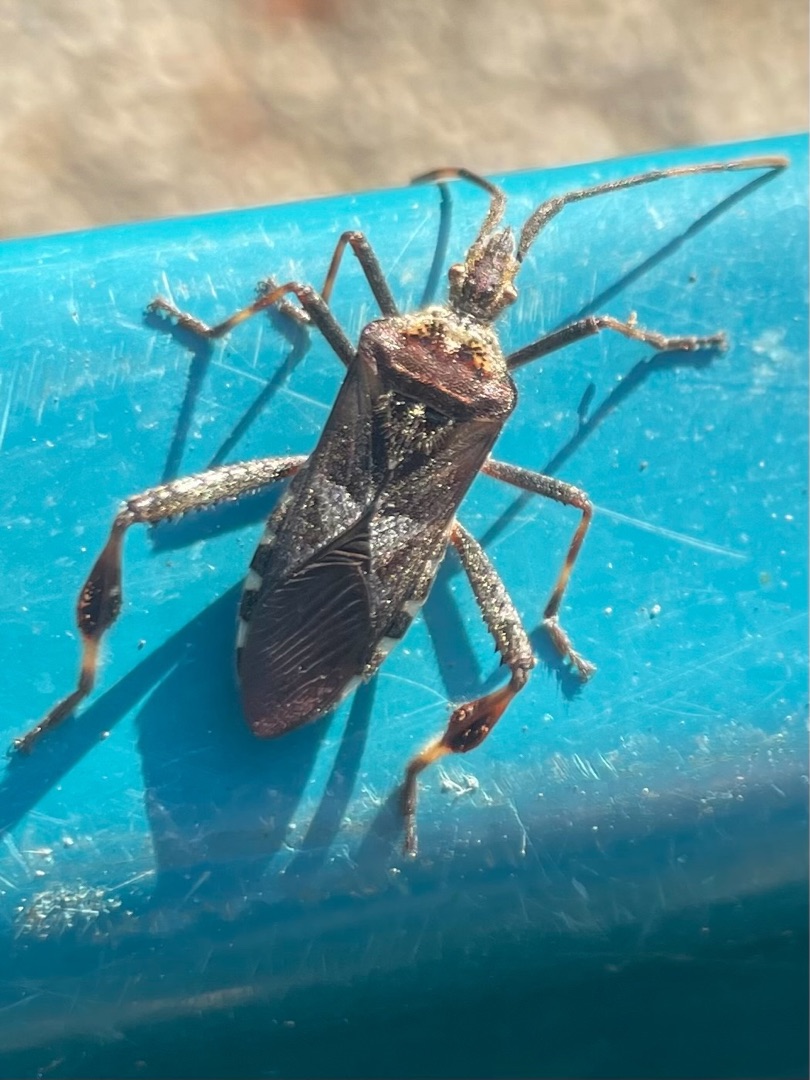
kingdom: Animalia
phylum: Arthropoda
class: Insecta
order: Hemiptera
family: Coreidae
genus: Leptoglossus
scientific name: Leptoglossus occidentalis
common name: Amerikansk fyrretæge
